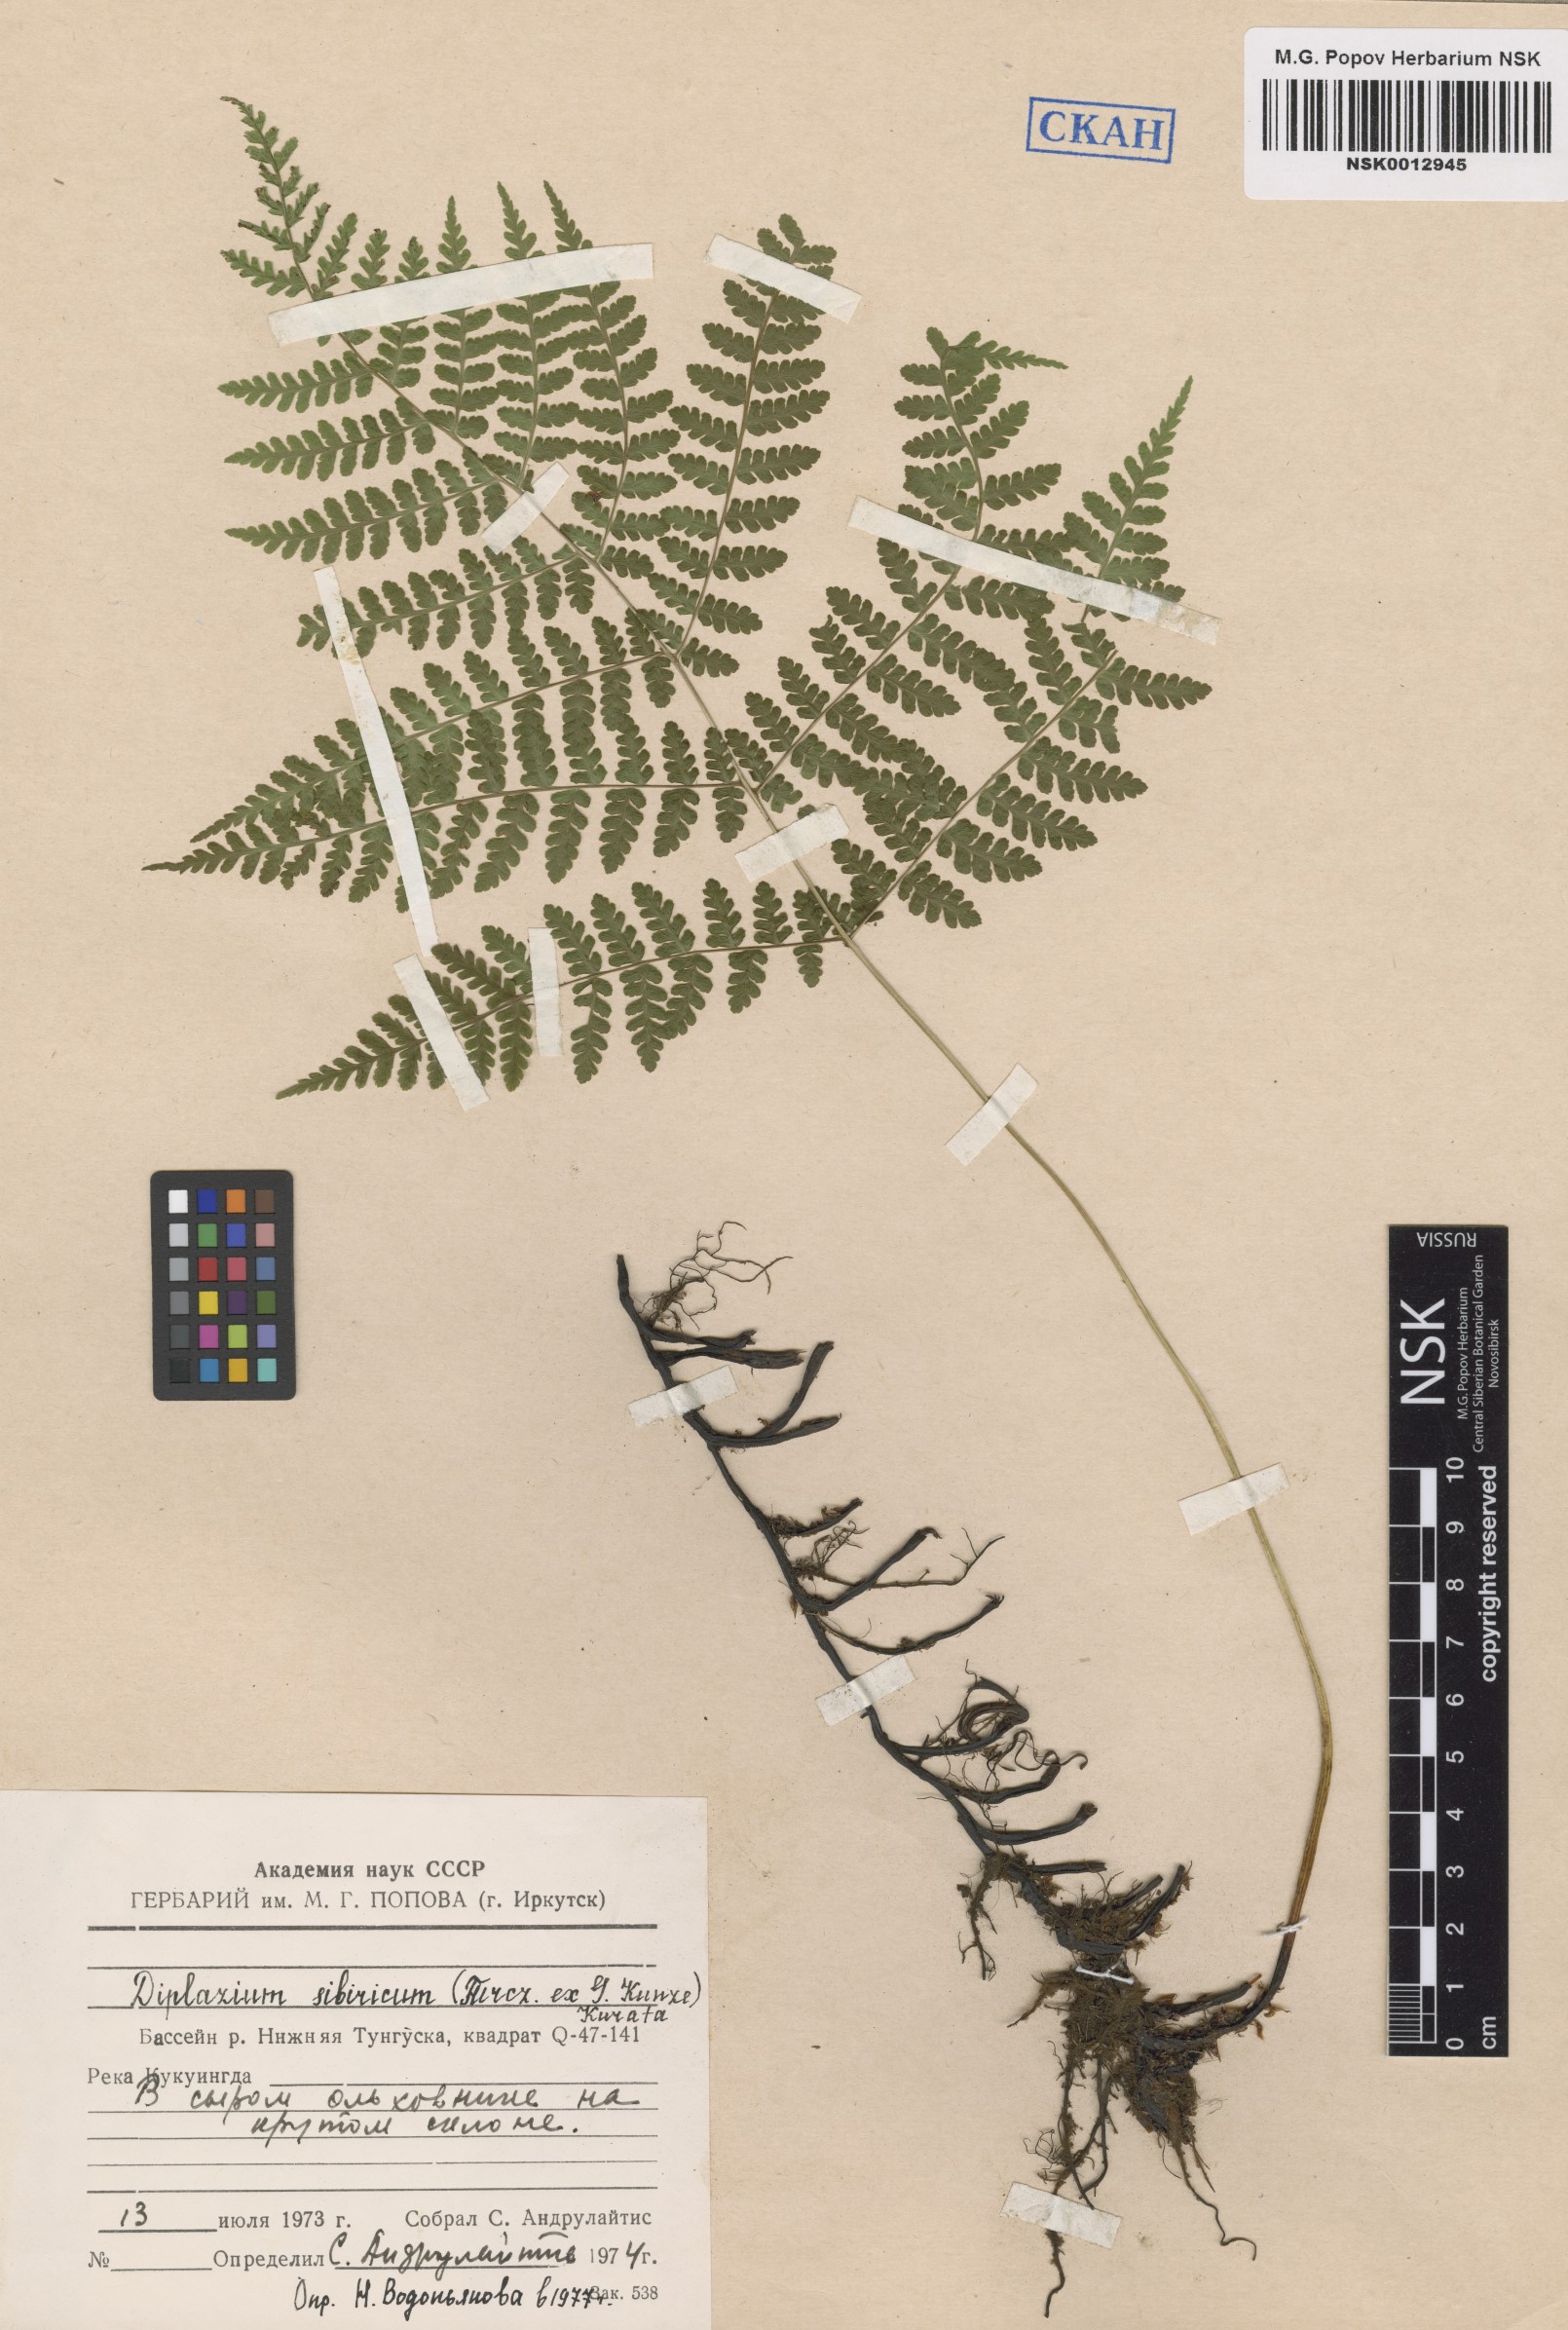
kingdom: Plantae
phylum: Tracheophyta
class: Polypodiopsida
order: Polypodiales
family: Athyriaceae
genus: Diplazium
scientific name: Diplazium sibiricum
